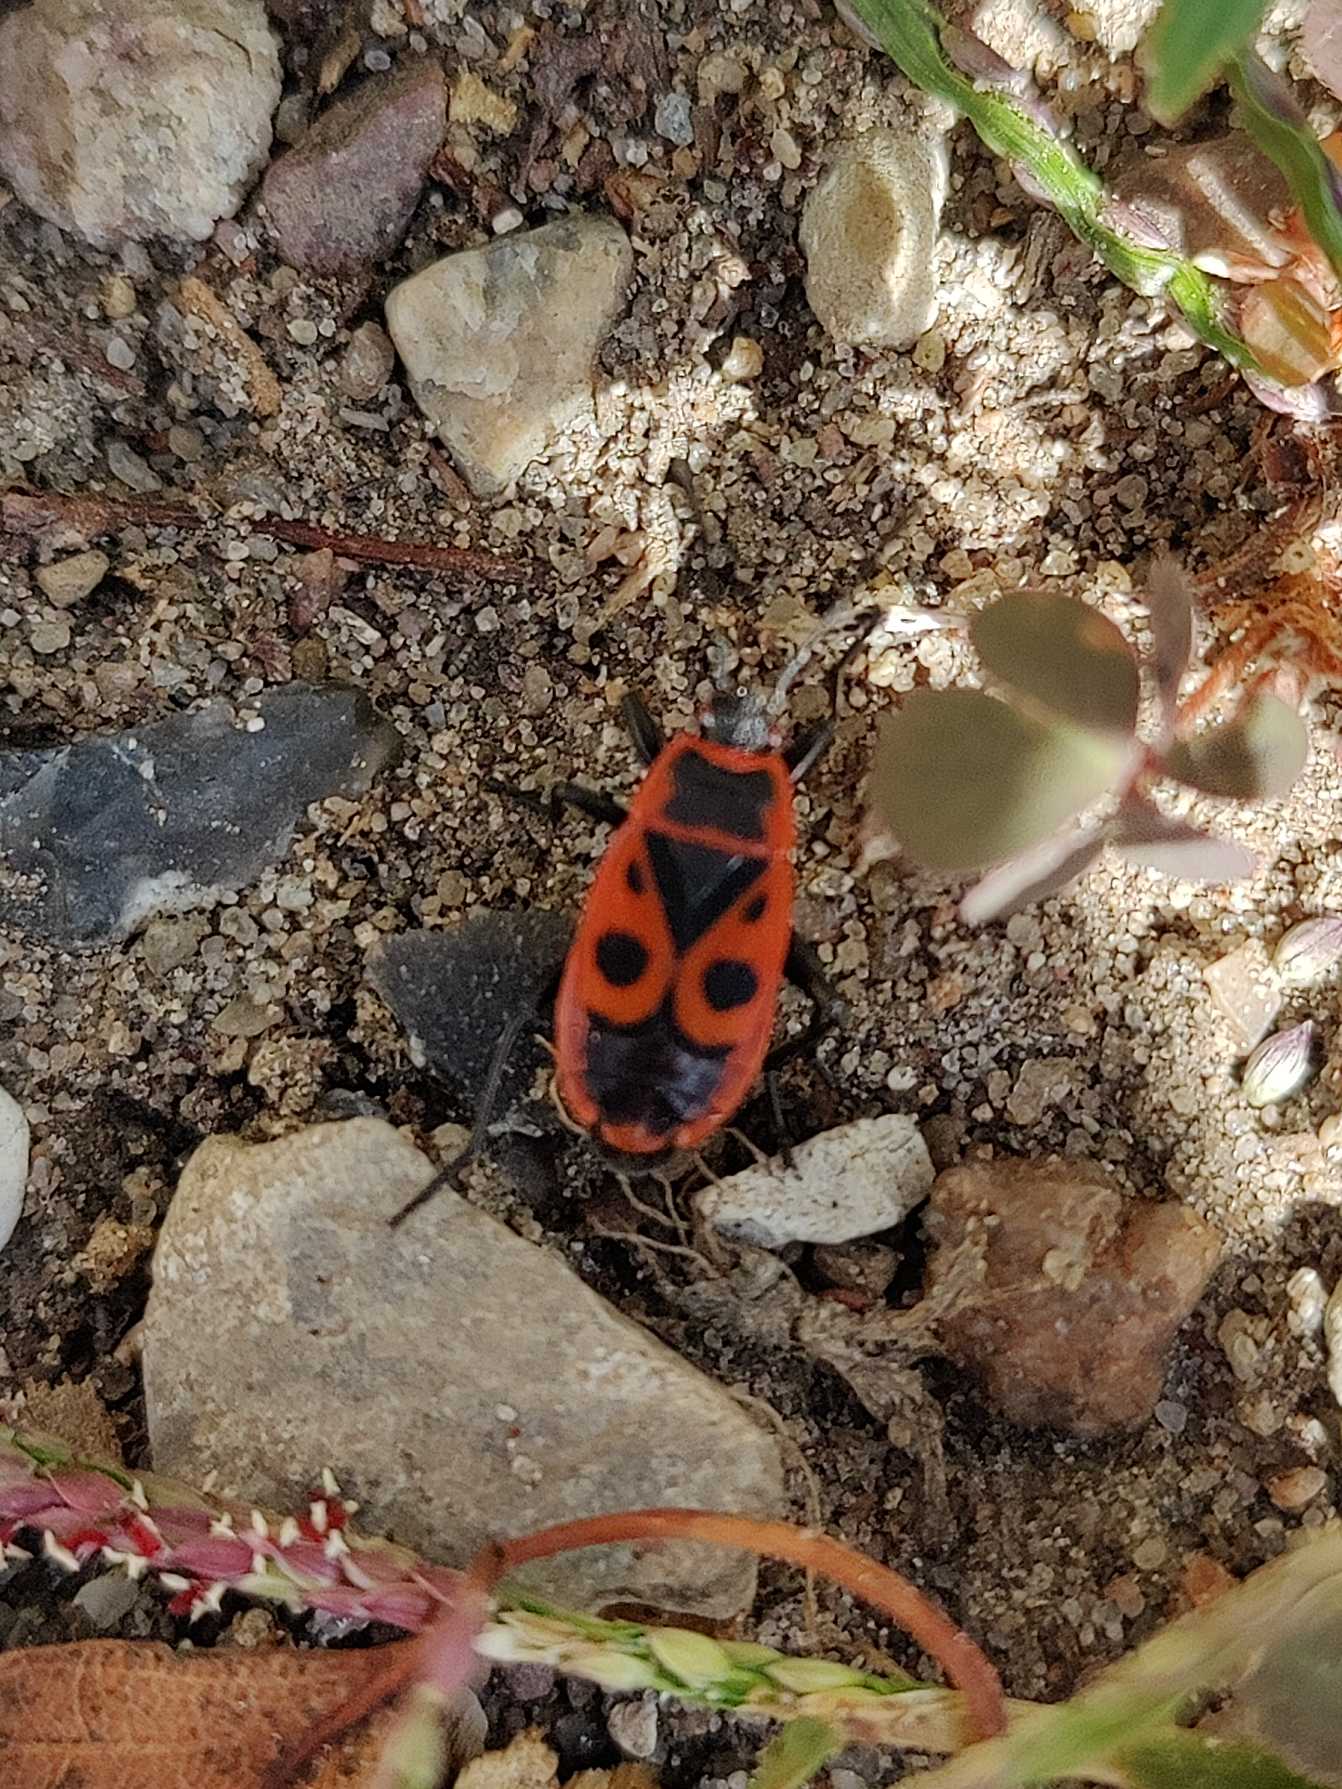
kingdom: Animalia
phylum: Arthropoda
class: Insecta
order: Hemiptera
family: Pyrrhocoridae
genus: Pyrrhocoris
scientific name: Pyrrhocoris apterus
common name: Ildtæge
